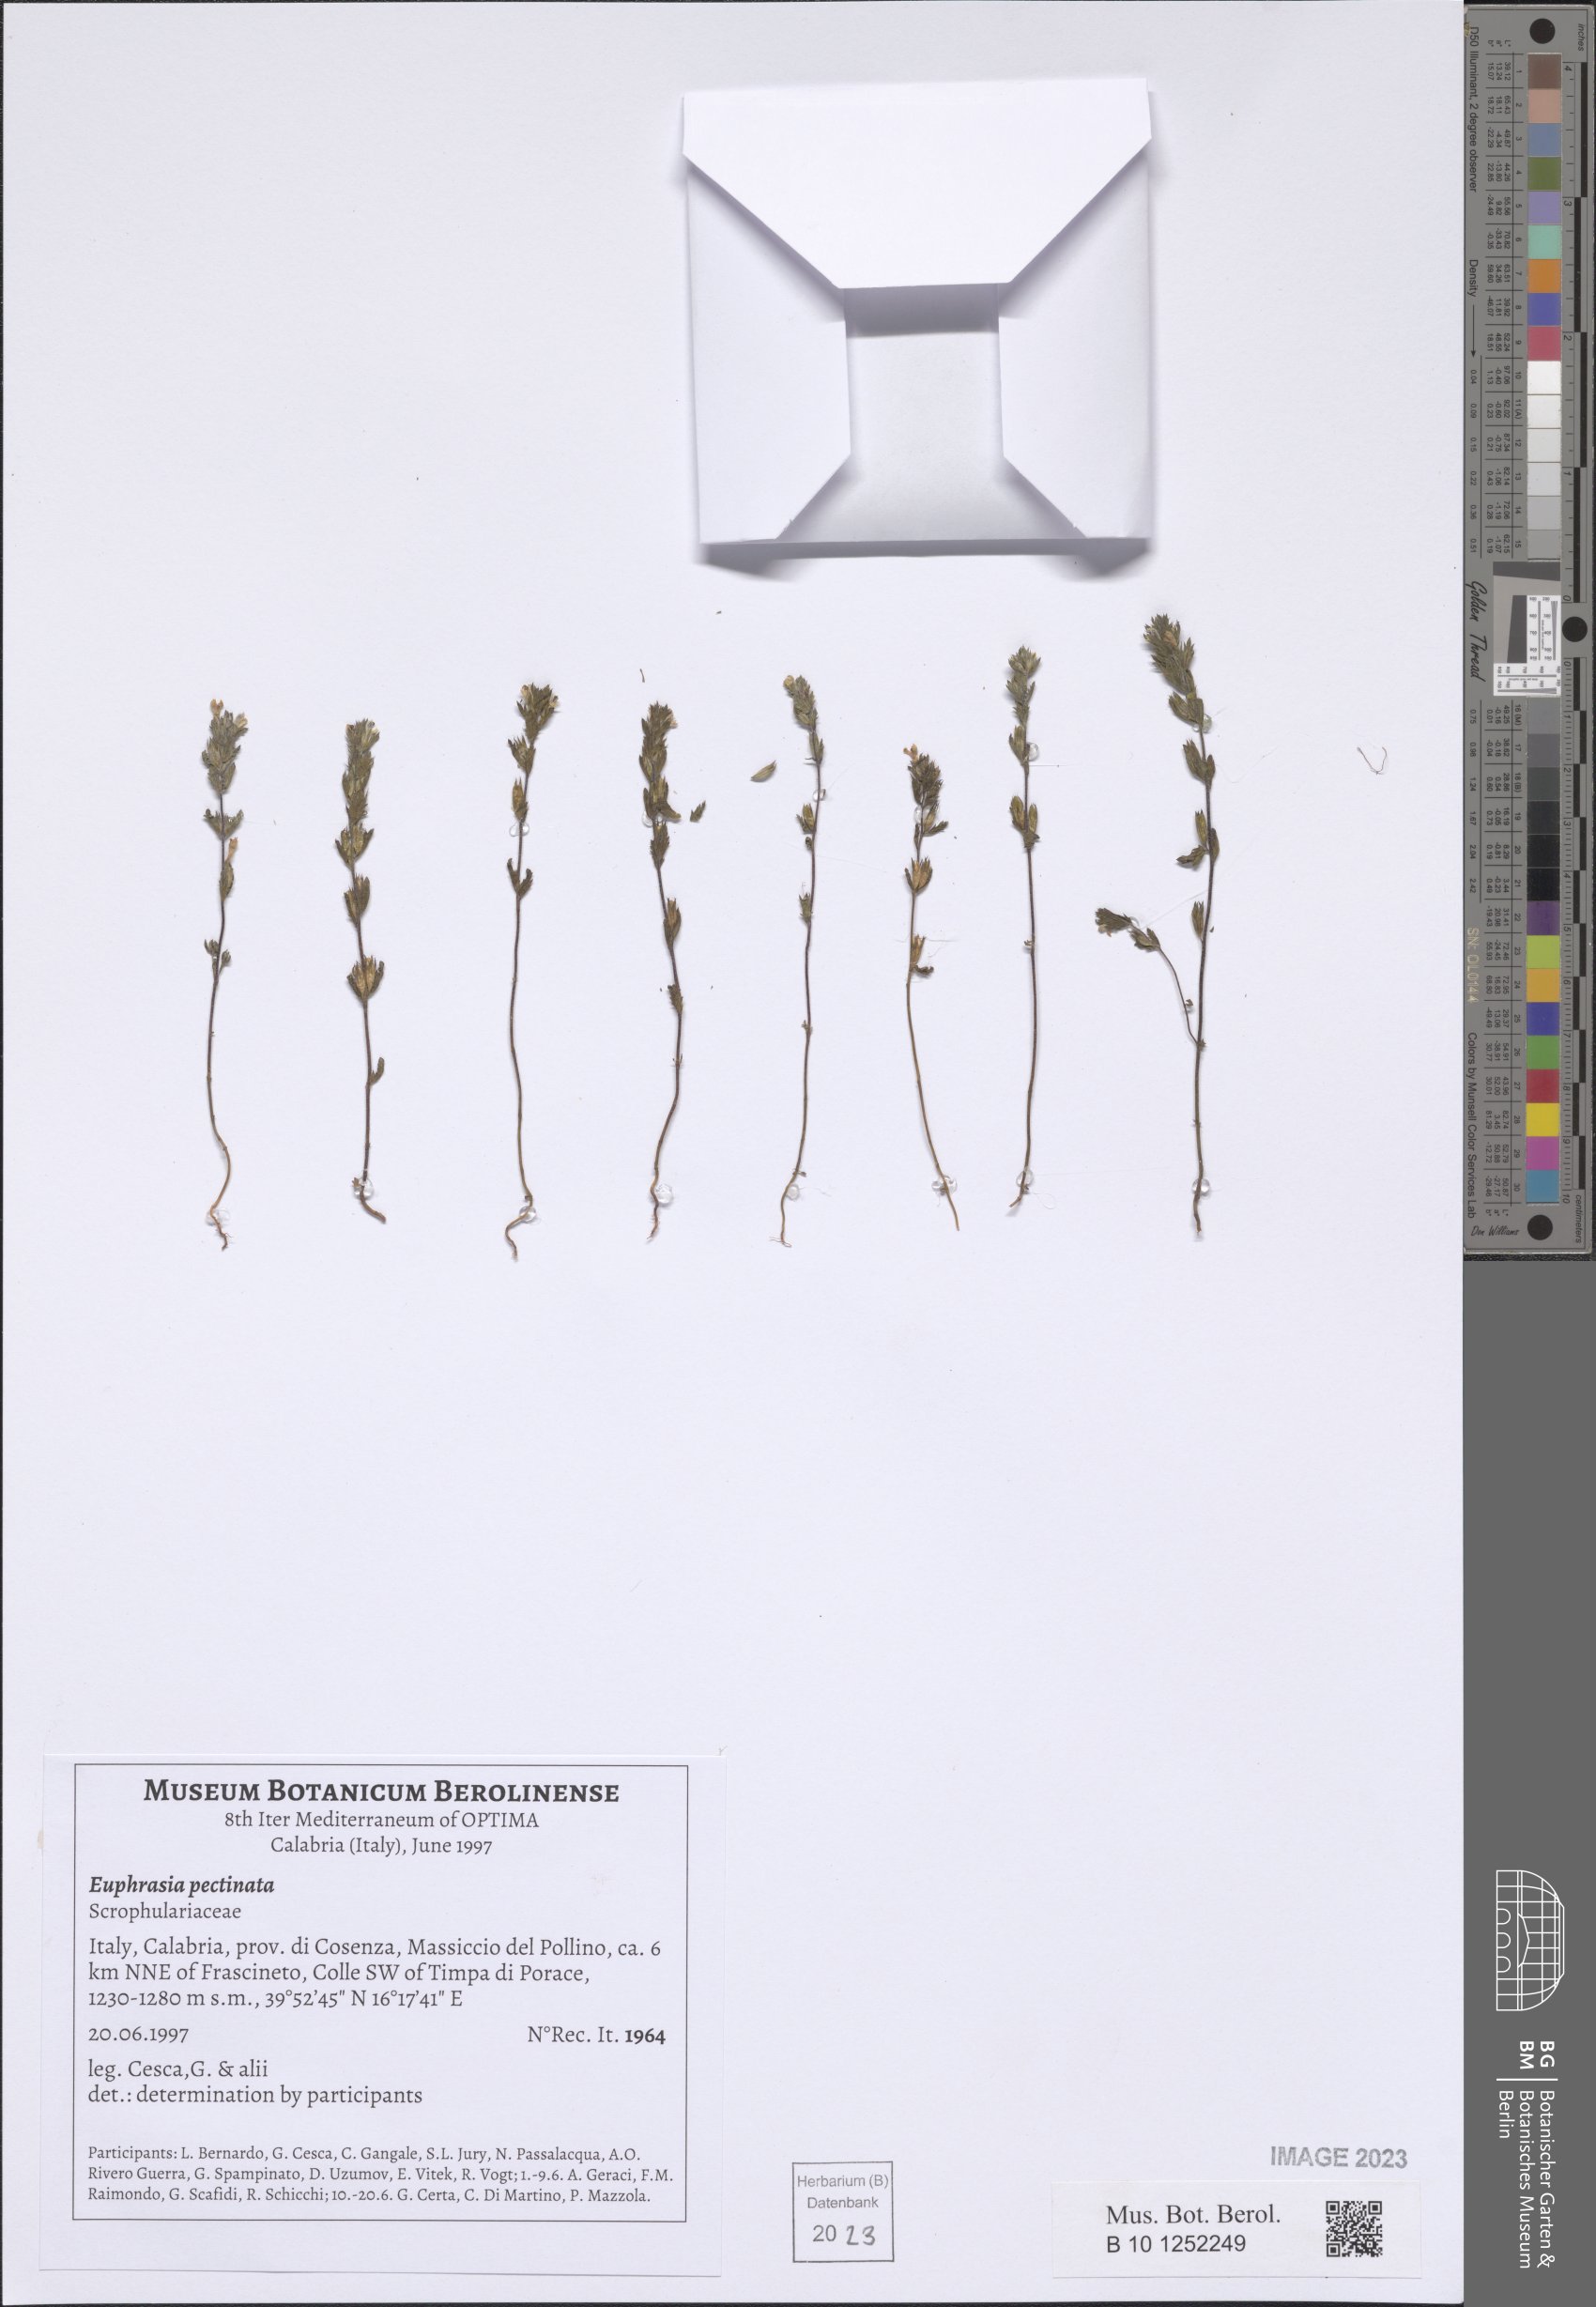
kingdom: Plantae
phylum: Tracheophyta
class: Magnoliopsida
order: Lamiales
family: Orobanchaceae
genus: Euphrasia
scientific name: Euphrasia pectinata
